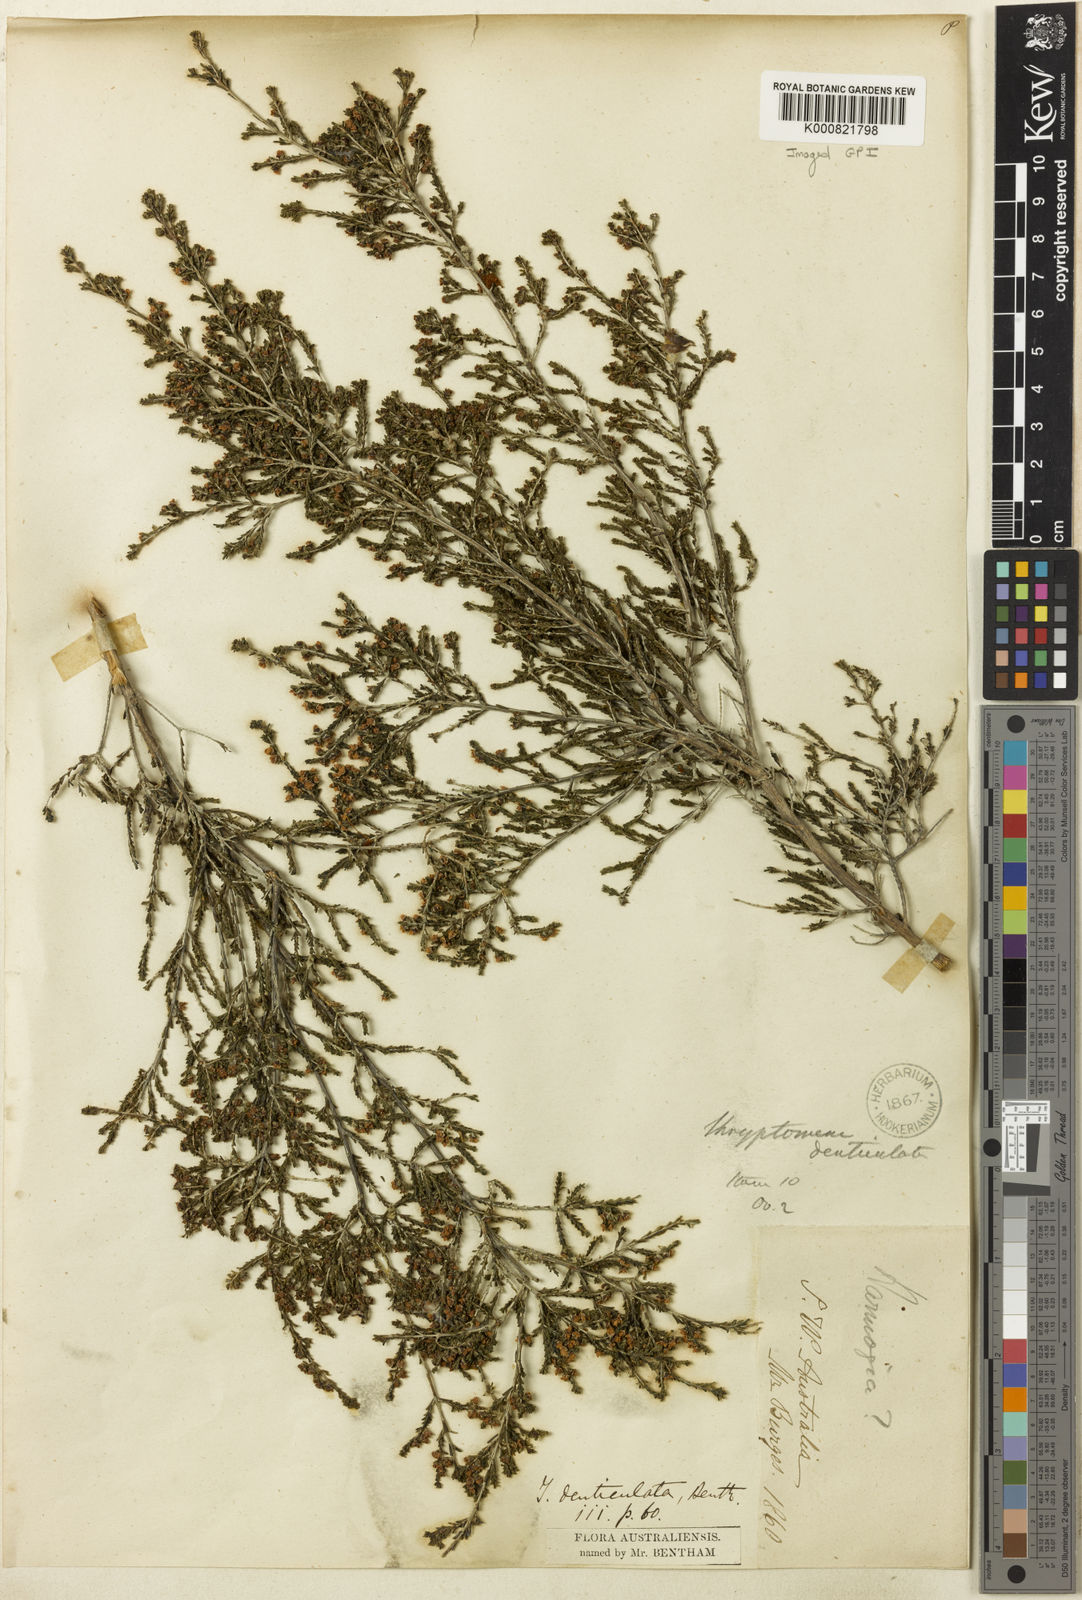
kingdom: Plantae
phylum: Tracheophyta
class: Magnoliopsida
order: Myrtales
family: Myrtaceae
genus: Thryptomene
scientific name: Thryptomene denticulata
